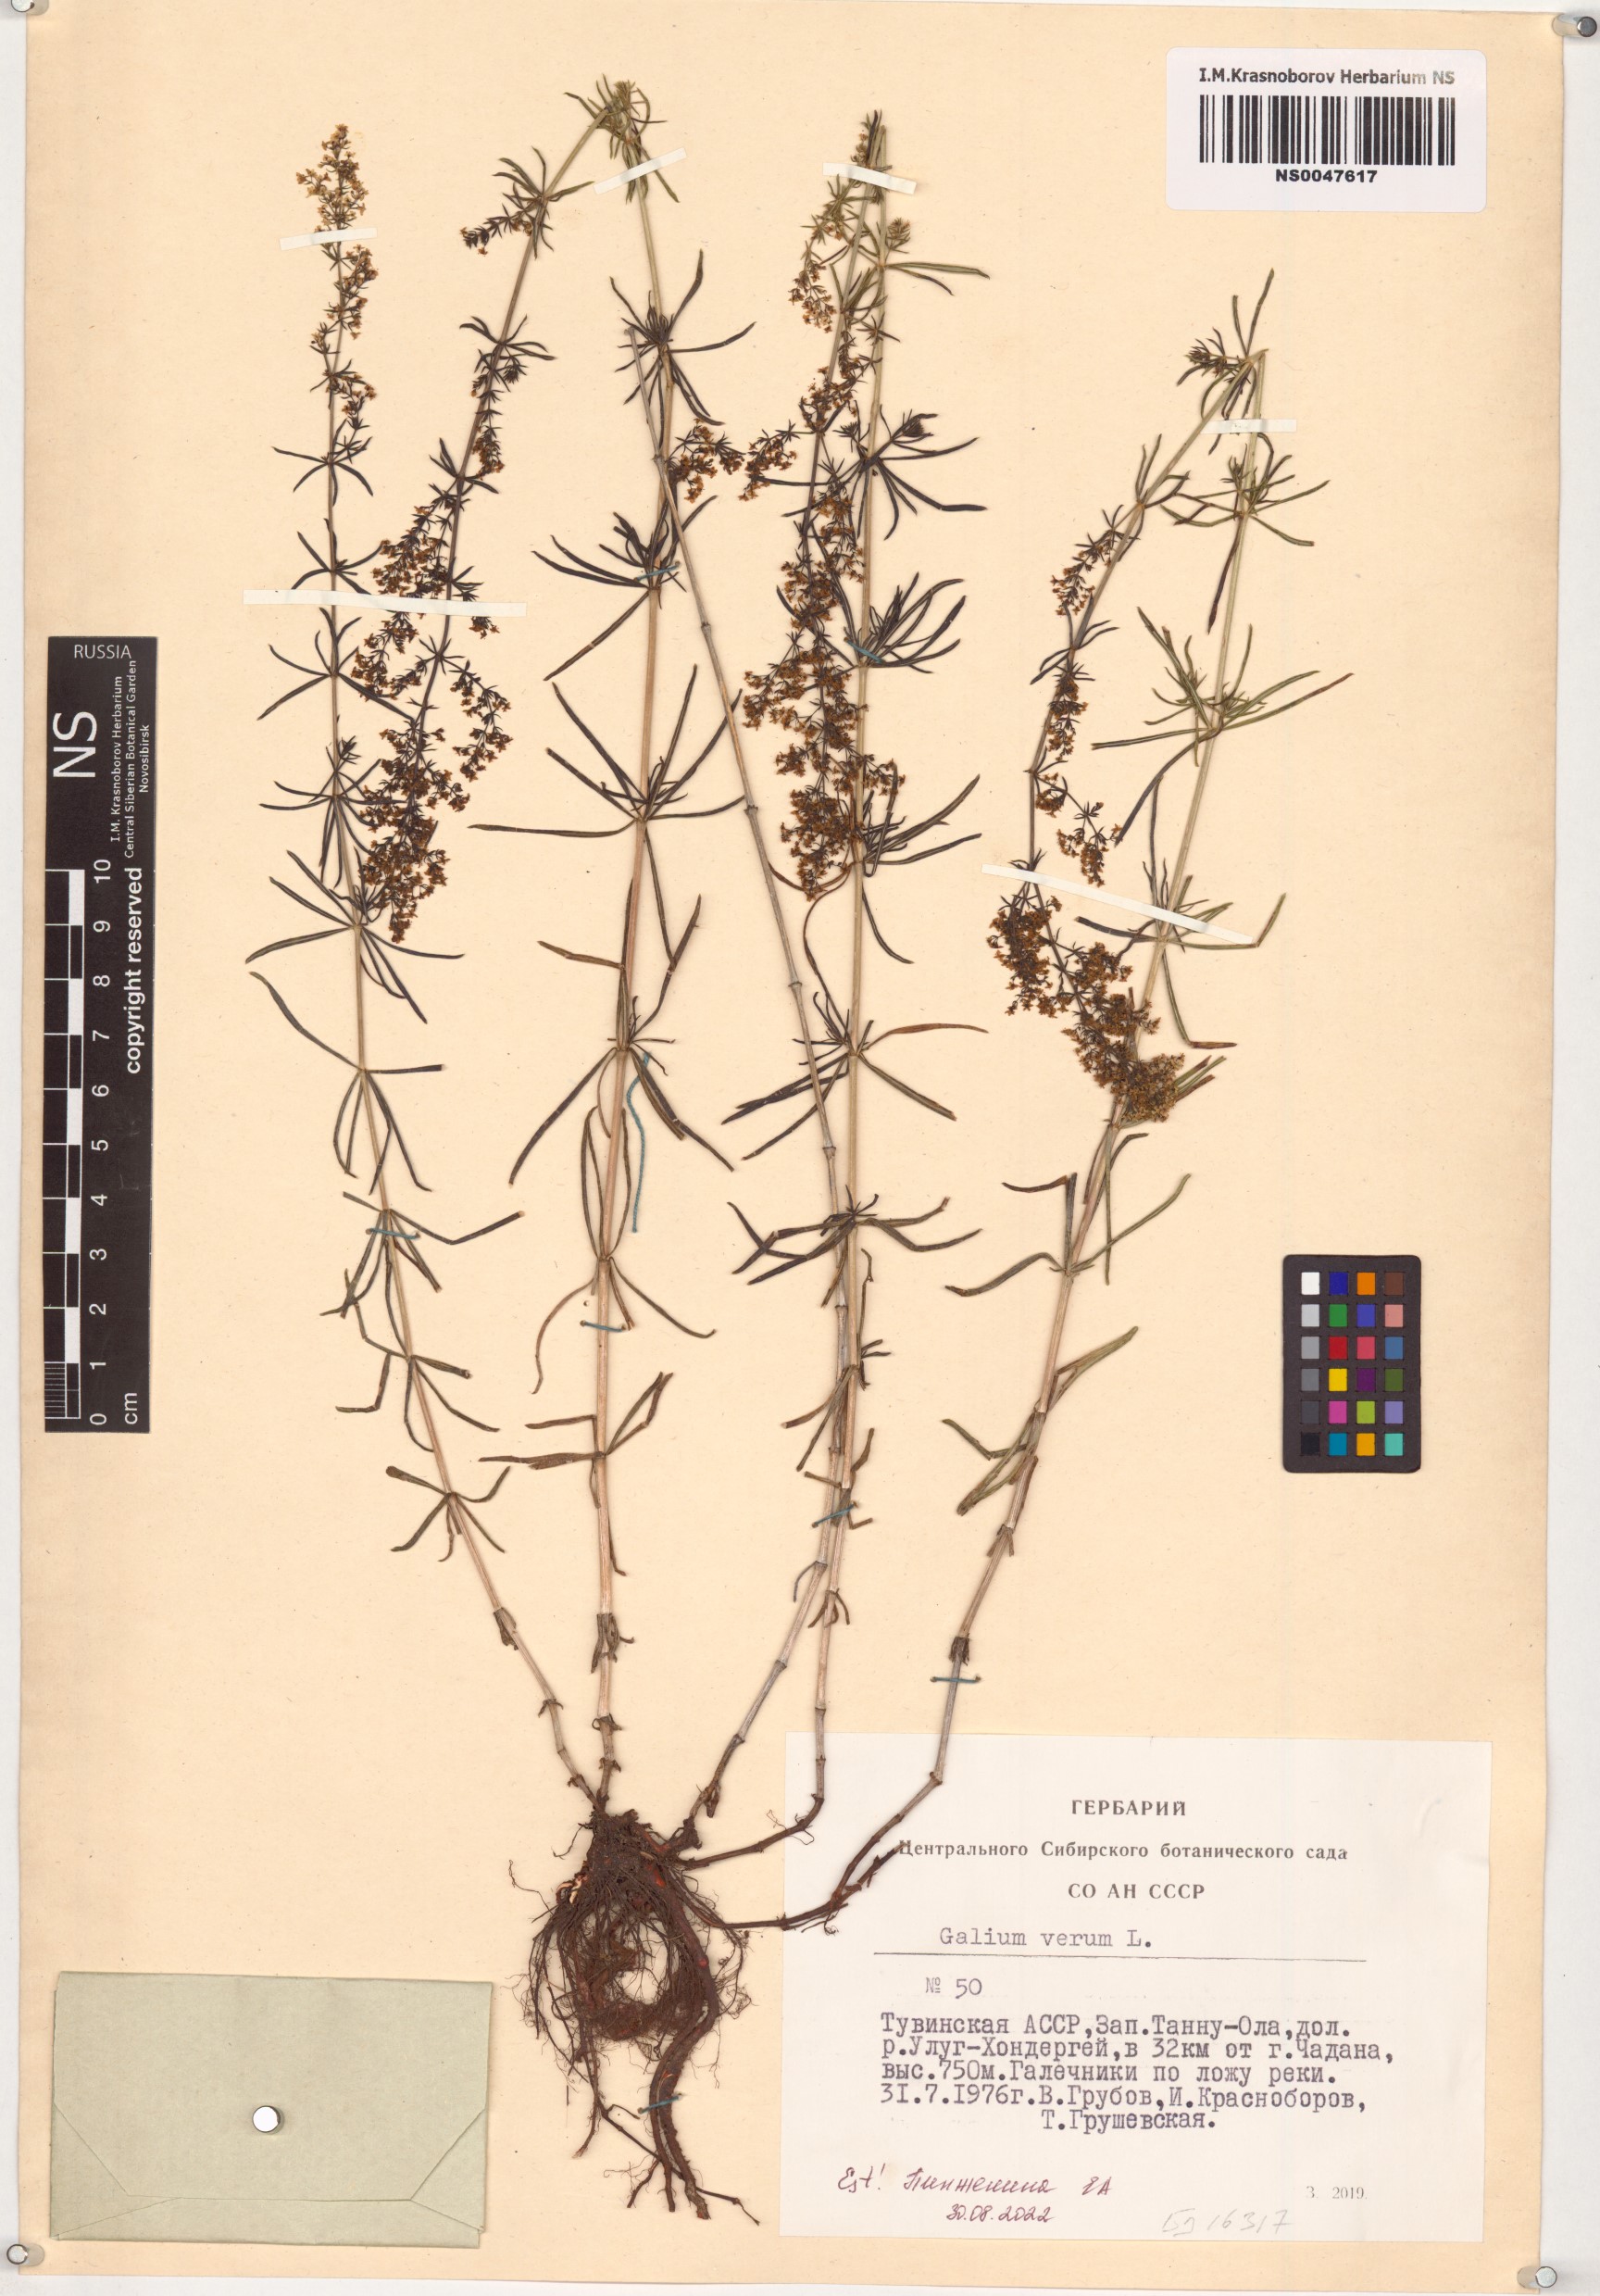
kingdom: Plantae
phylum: Tracheophyta
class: Magnoliopsida
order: Gentianales
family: Rubiaceae
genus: Galium
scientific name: Galium verum
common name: Lady's bedstraw
